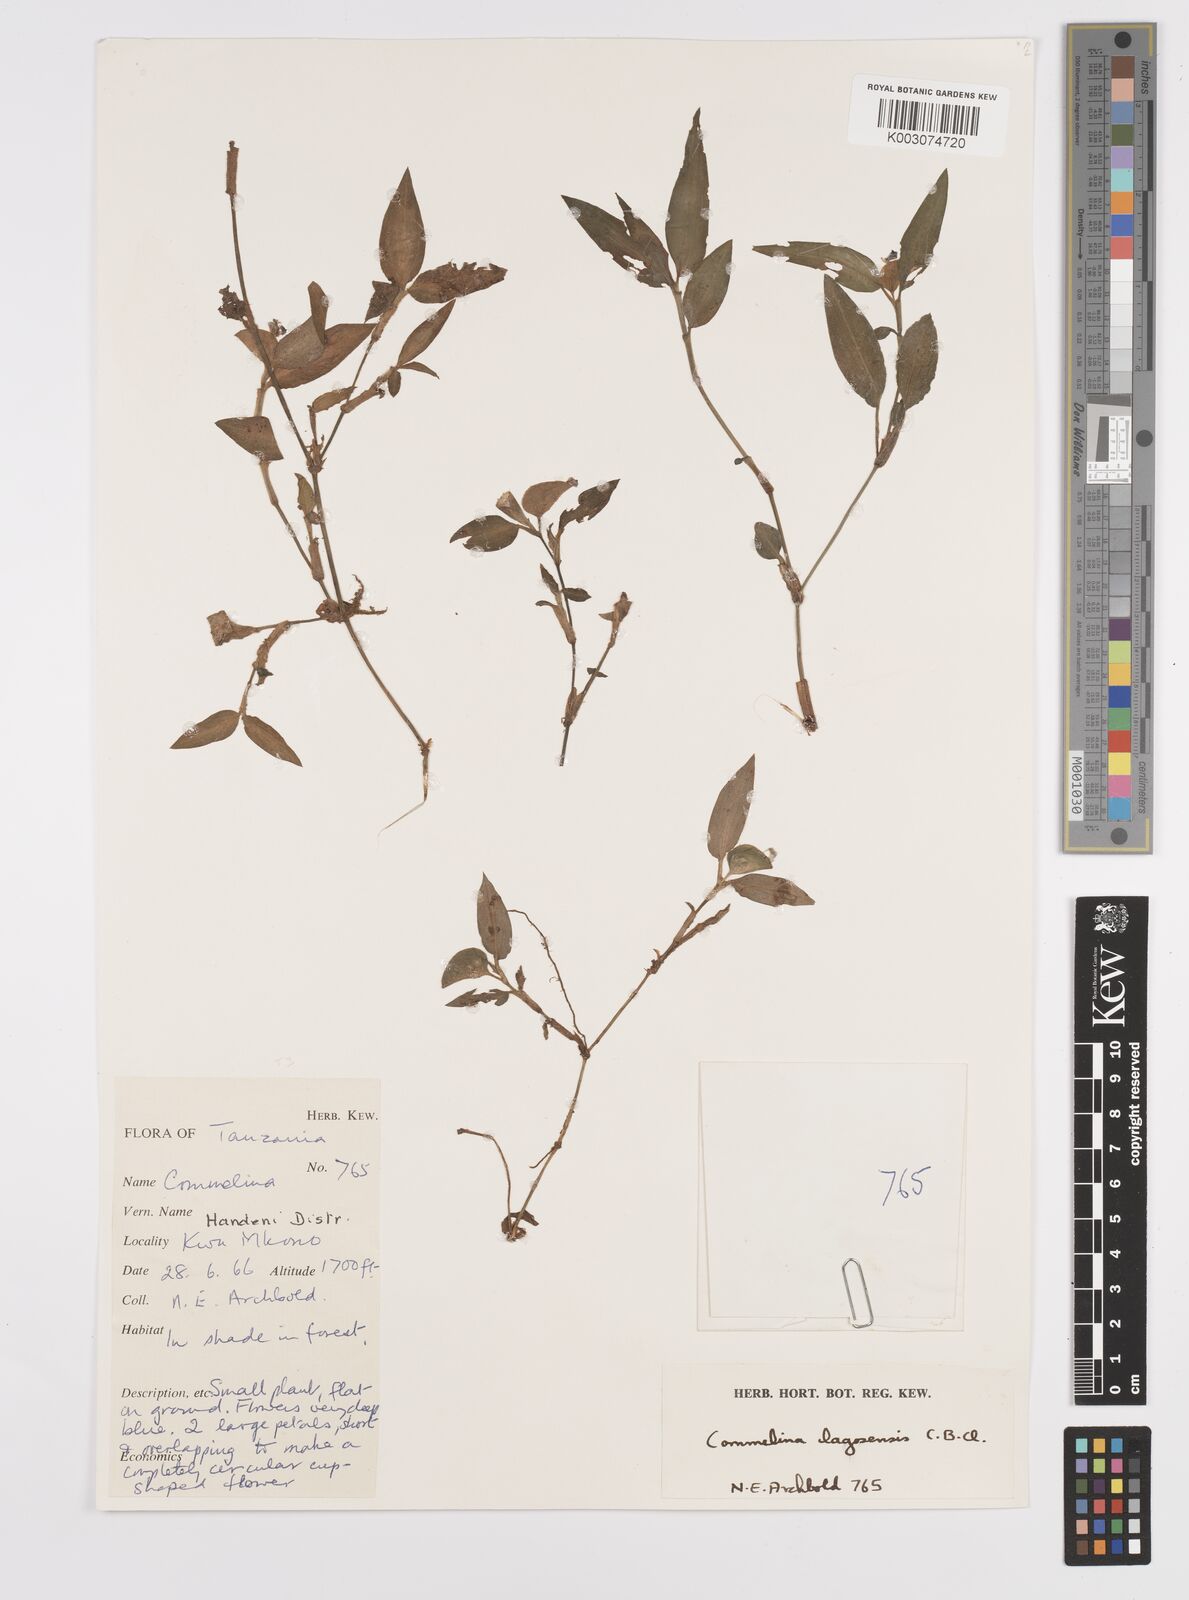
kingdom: Plantae
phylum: Tracheophyta
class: Liliopsida
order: Commelinales
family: Commelinaceae
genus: Commelina
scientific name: Commelina bracteosa
